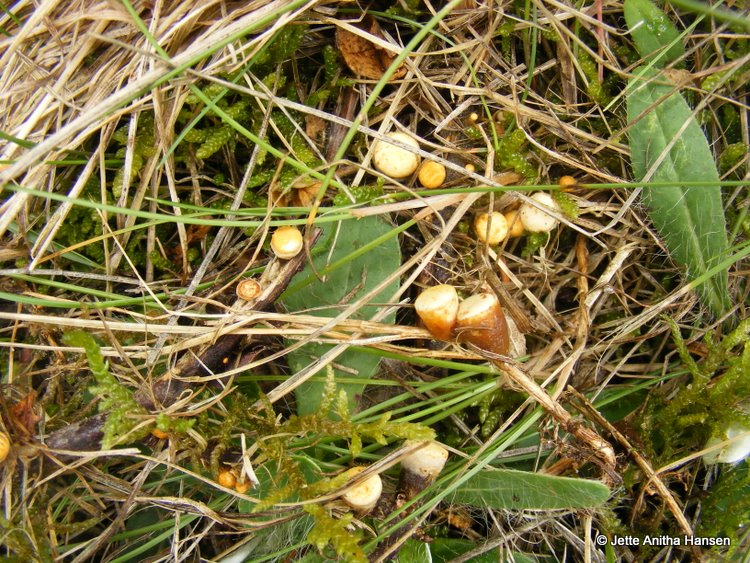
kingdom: Fungi
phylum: Basidiomycota
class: Agaricomycetes
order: Agaricales
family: Nidulariaceae
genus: Crucibulum
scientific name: Crucibulum crucibuliforme
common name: krukkesvamp
